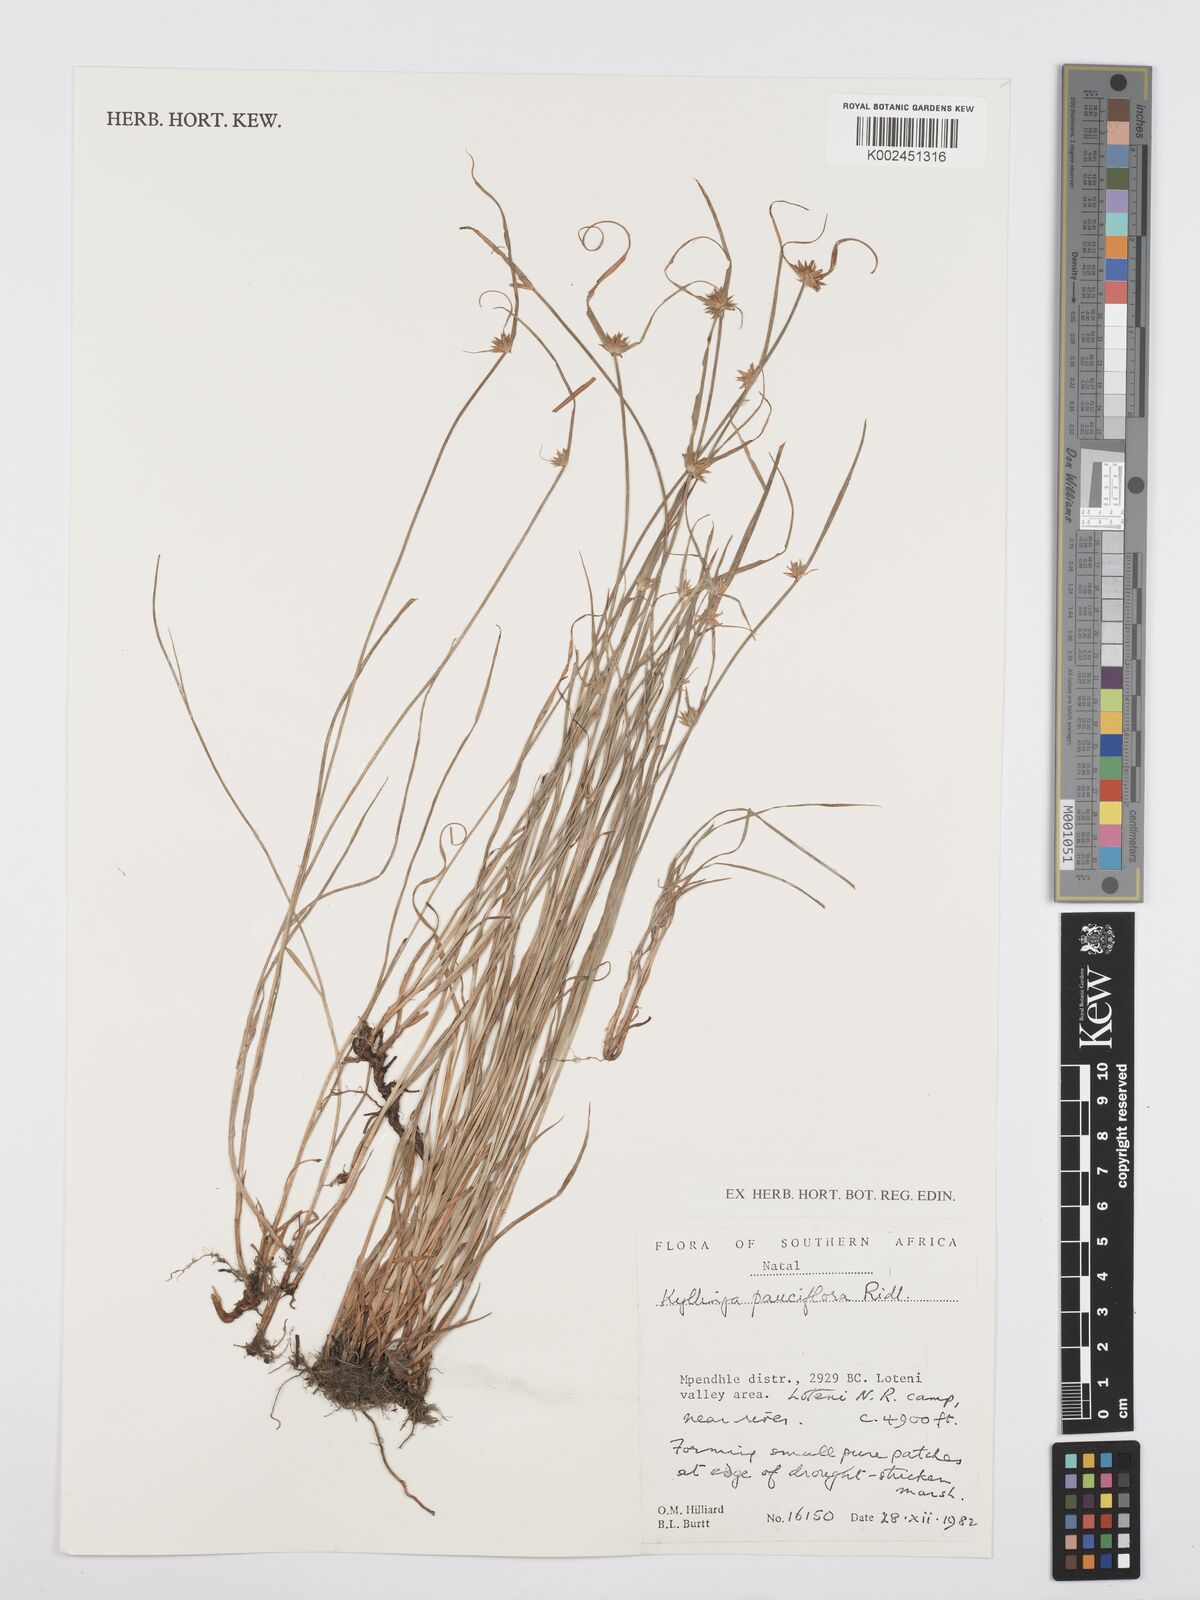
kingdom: Plantae
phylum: Tracheophyta
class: Liliopsida
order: Poales
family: Cyperaceae
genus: Cyperus
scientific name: Cyperus
